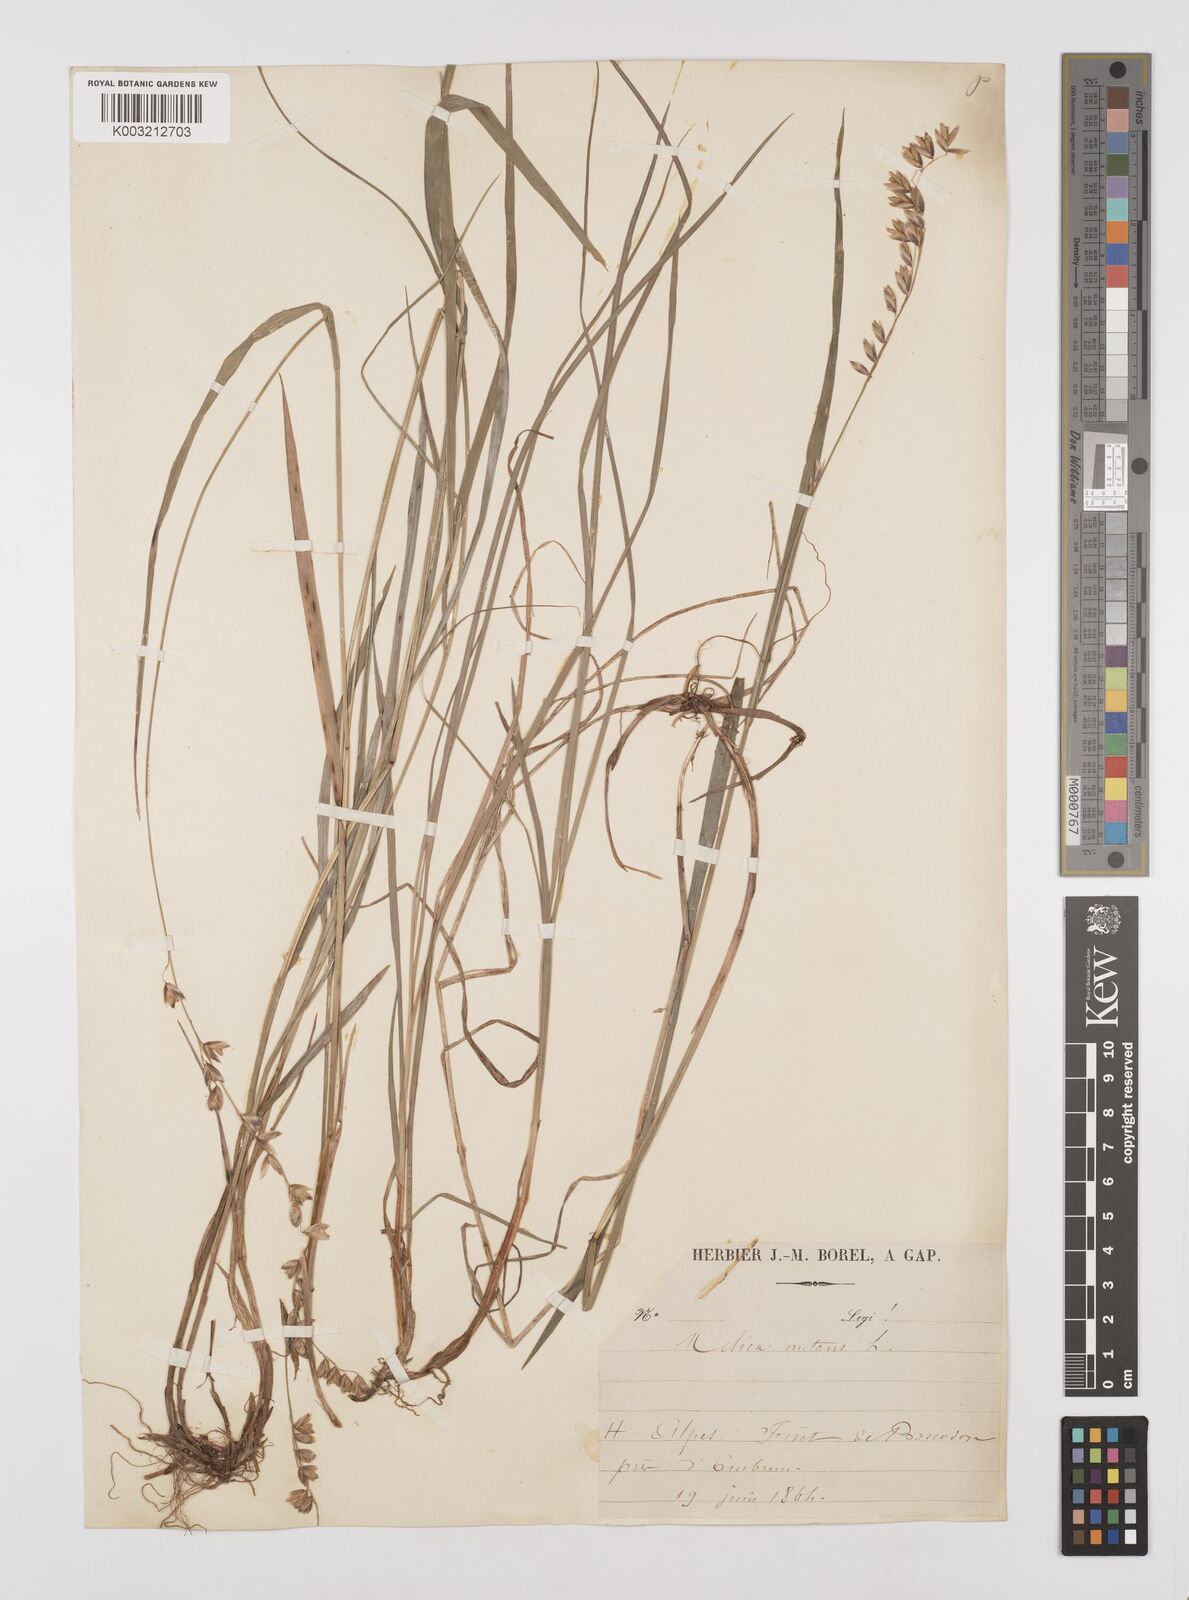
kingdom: Plantae
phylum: Tracheophyta
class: Liliopsida
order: Poales
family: Poaceae
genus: Melica
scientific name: Melica nutans
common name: Mountain melick
